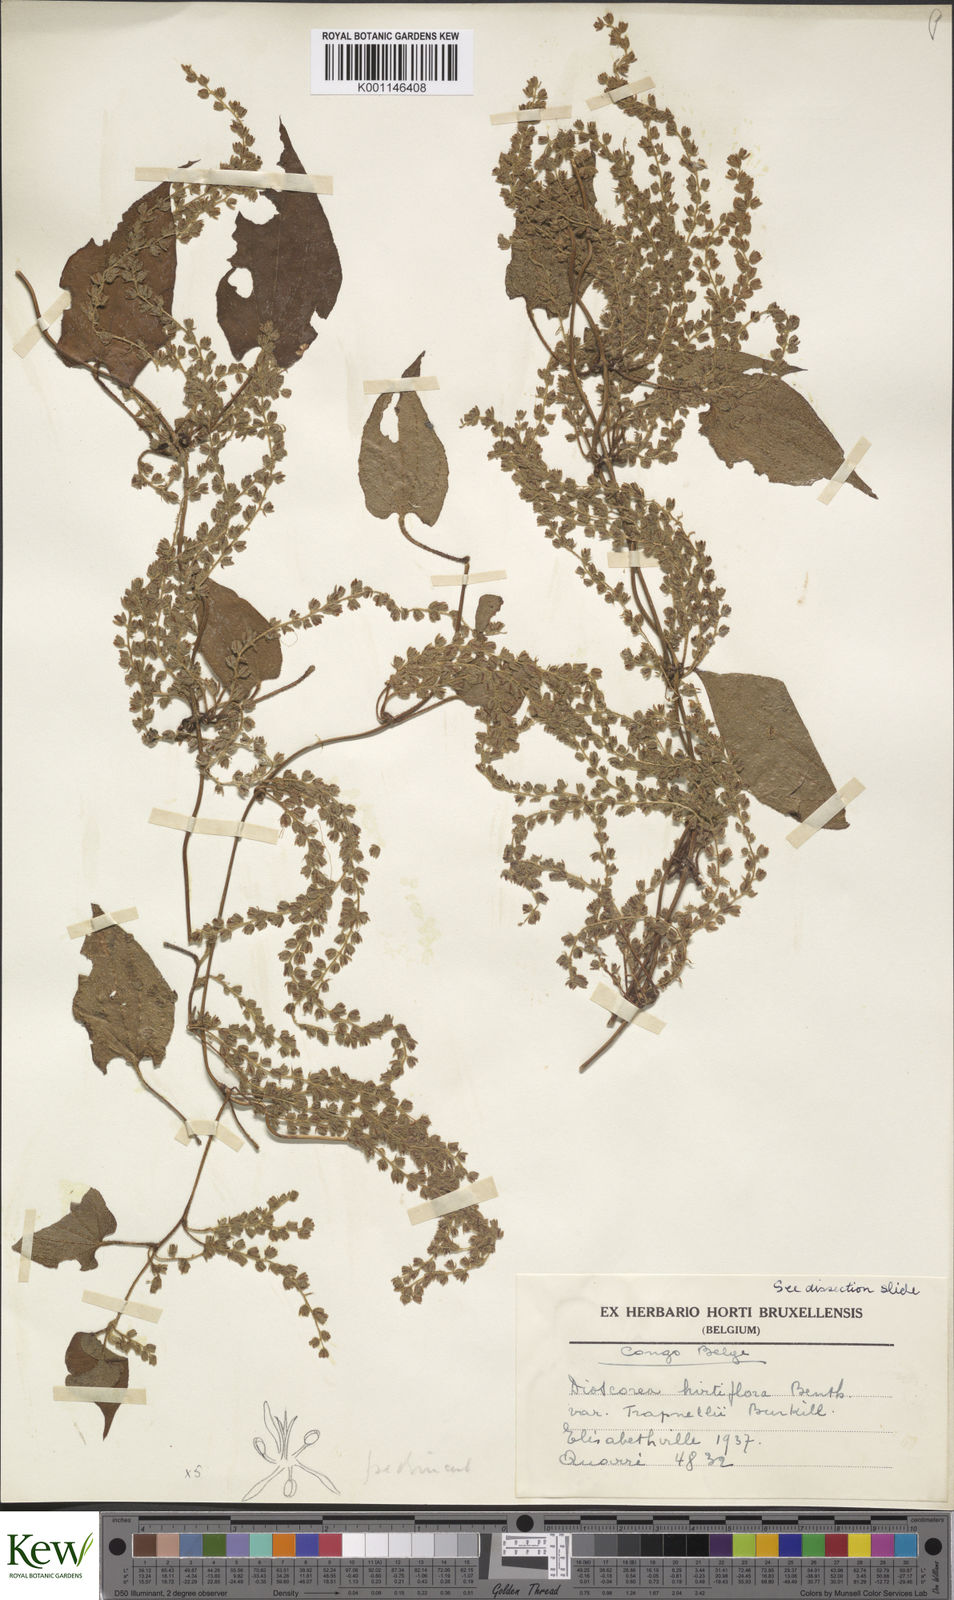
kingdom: Plantae
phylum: Tracheophyta
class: Liliopsida
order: Dioscoreales
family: Dioscoreaceae
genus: Dioscorea
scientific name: Dioscorea hirtiflora
